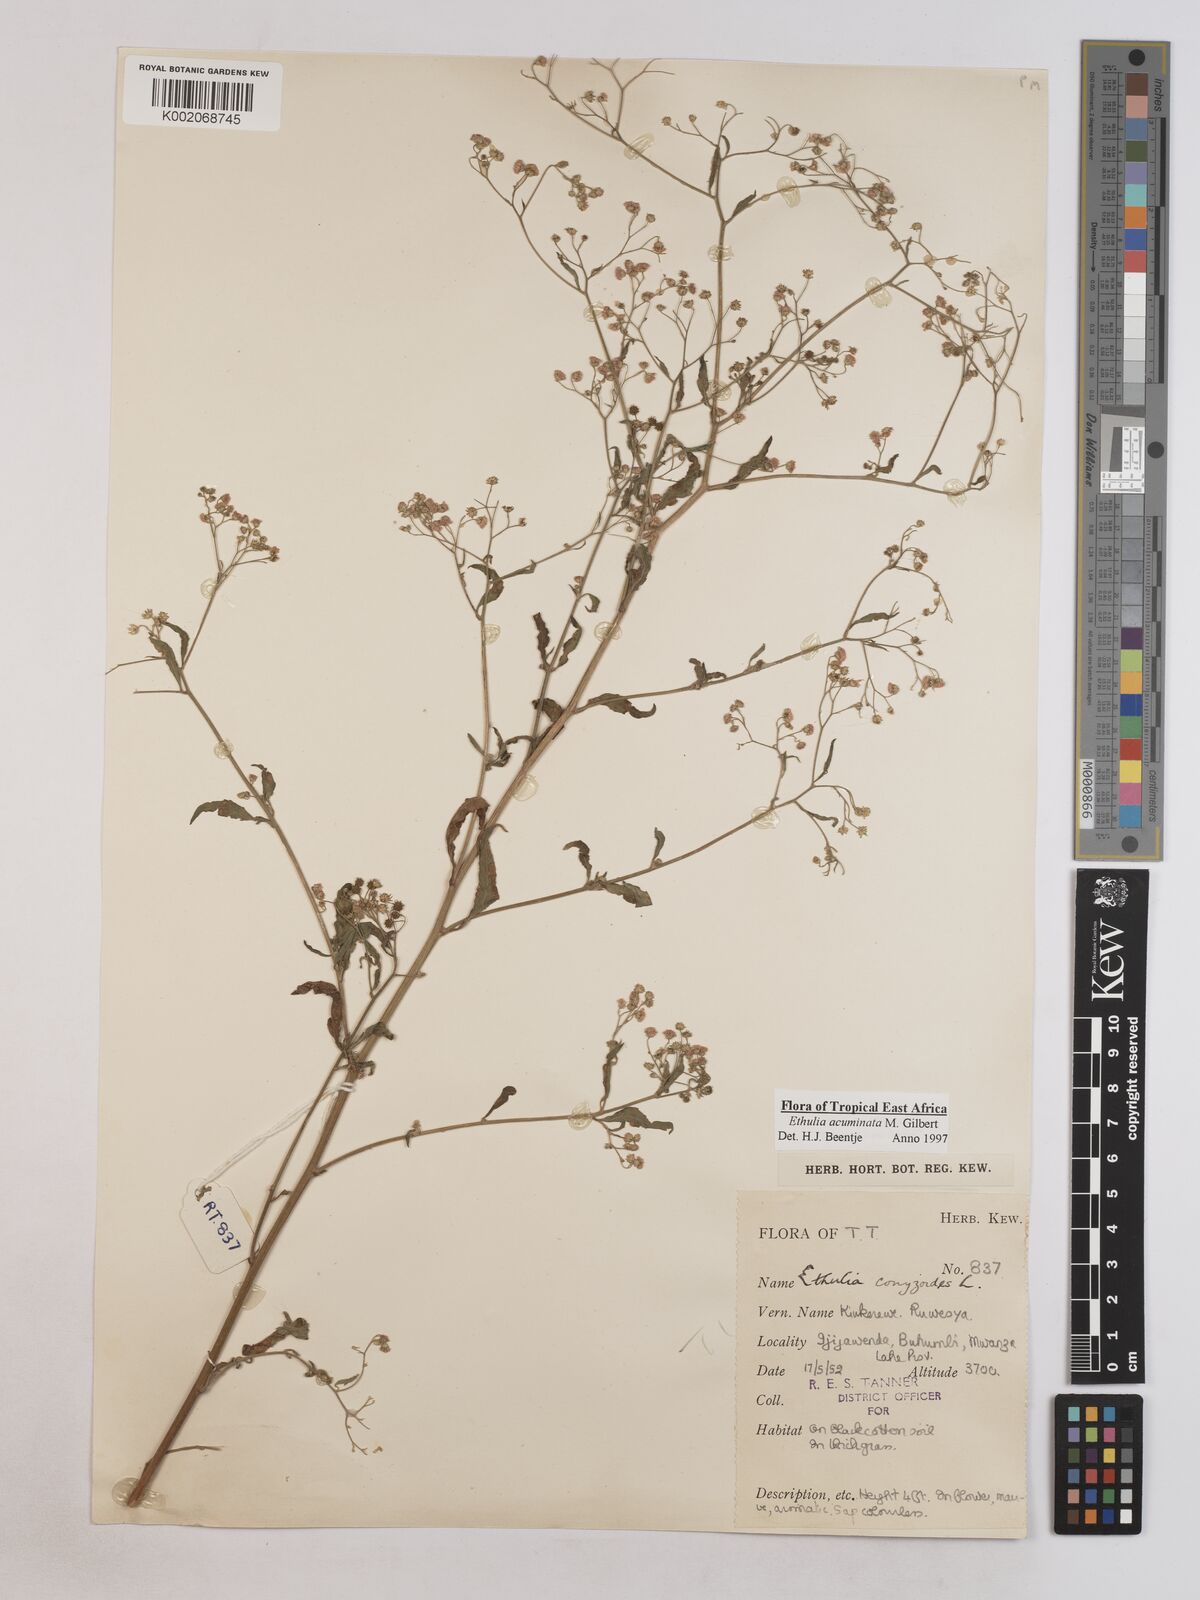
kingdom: Plantae
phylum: Tracheophyta
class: Magnoliopsida
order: Asterales
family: Asteraceae
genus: Ethulia
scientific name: Ethulia acuminata
